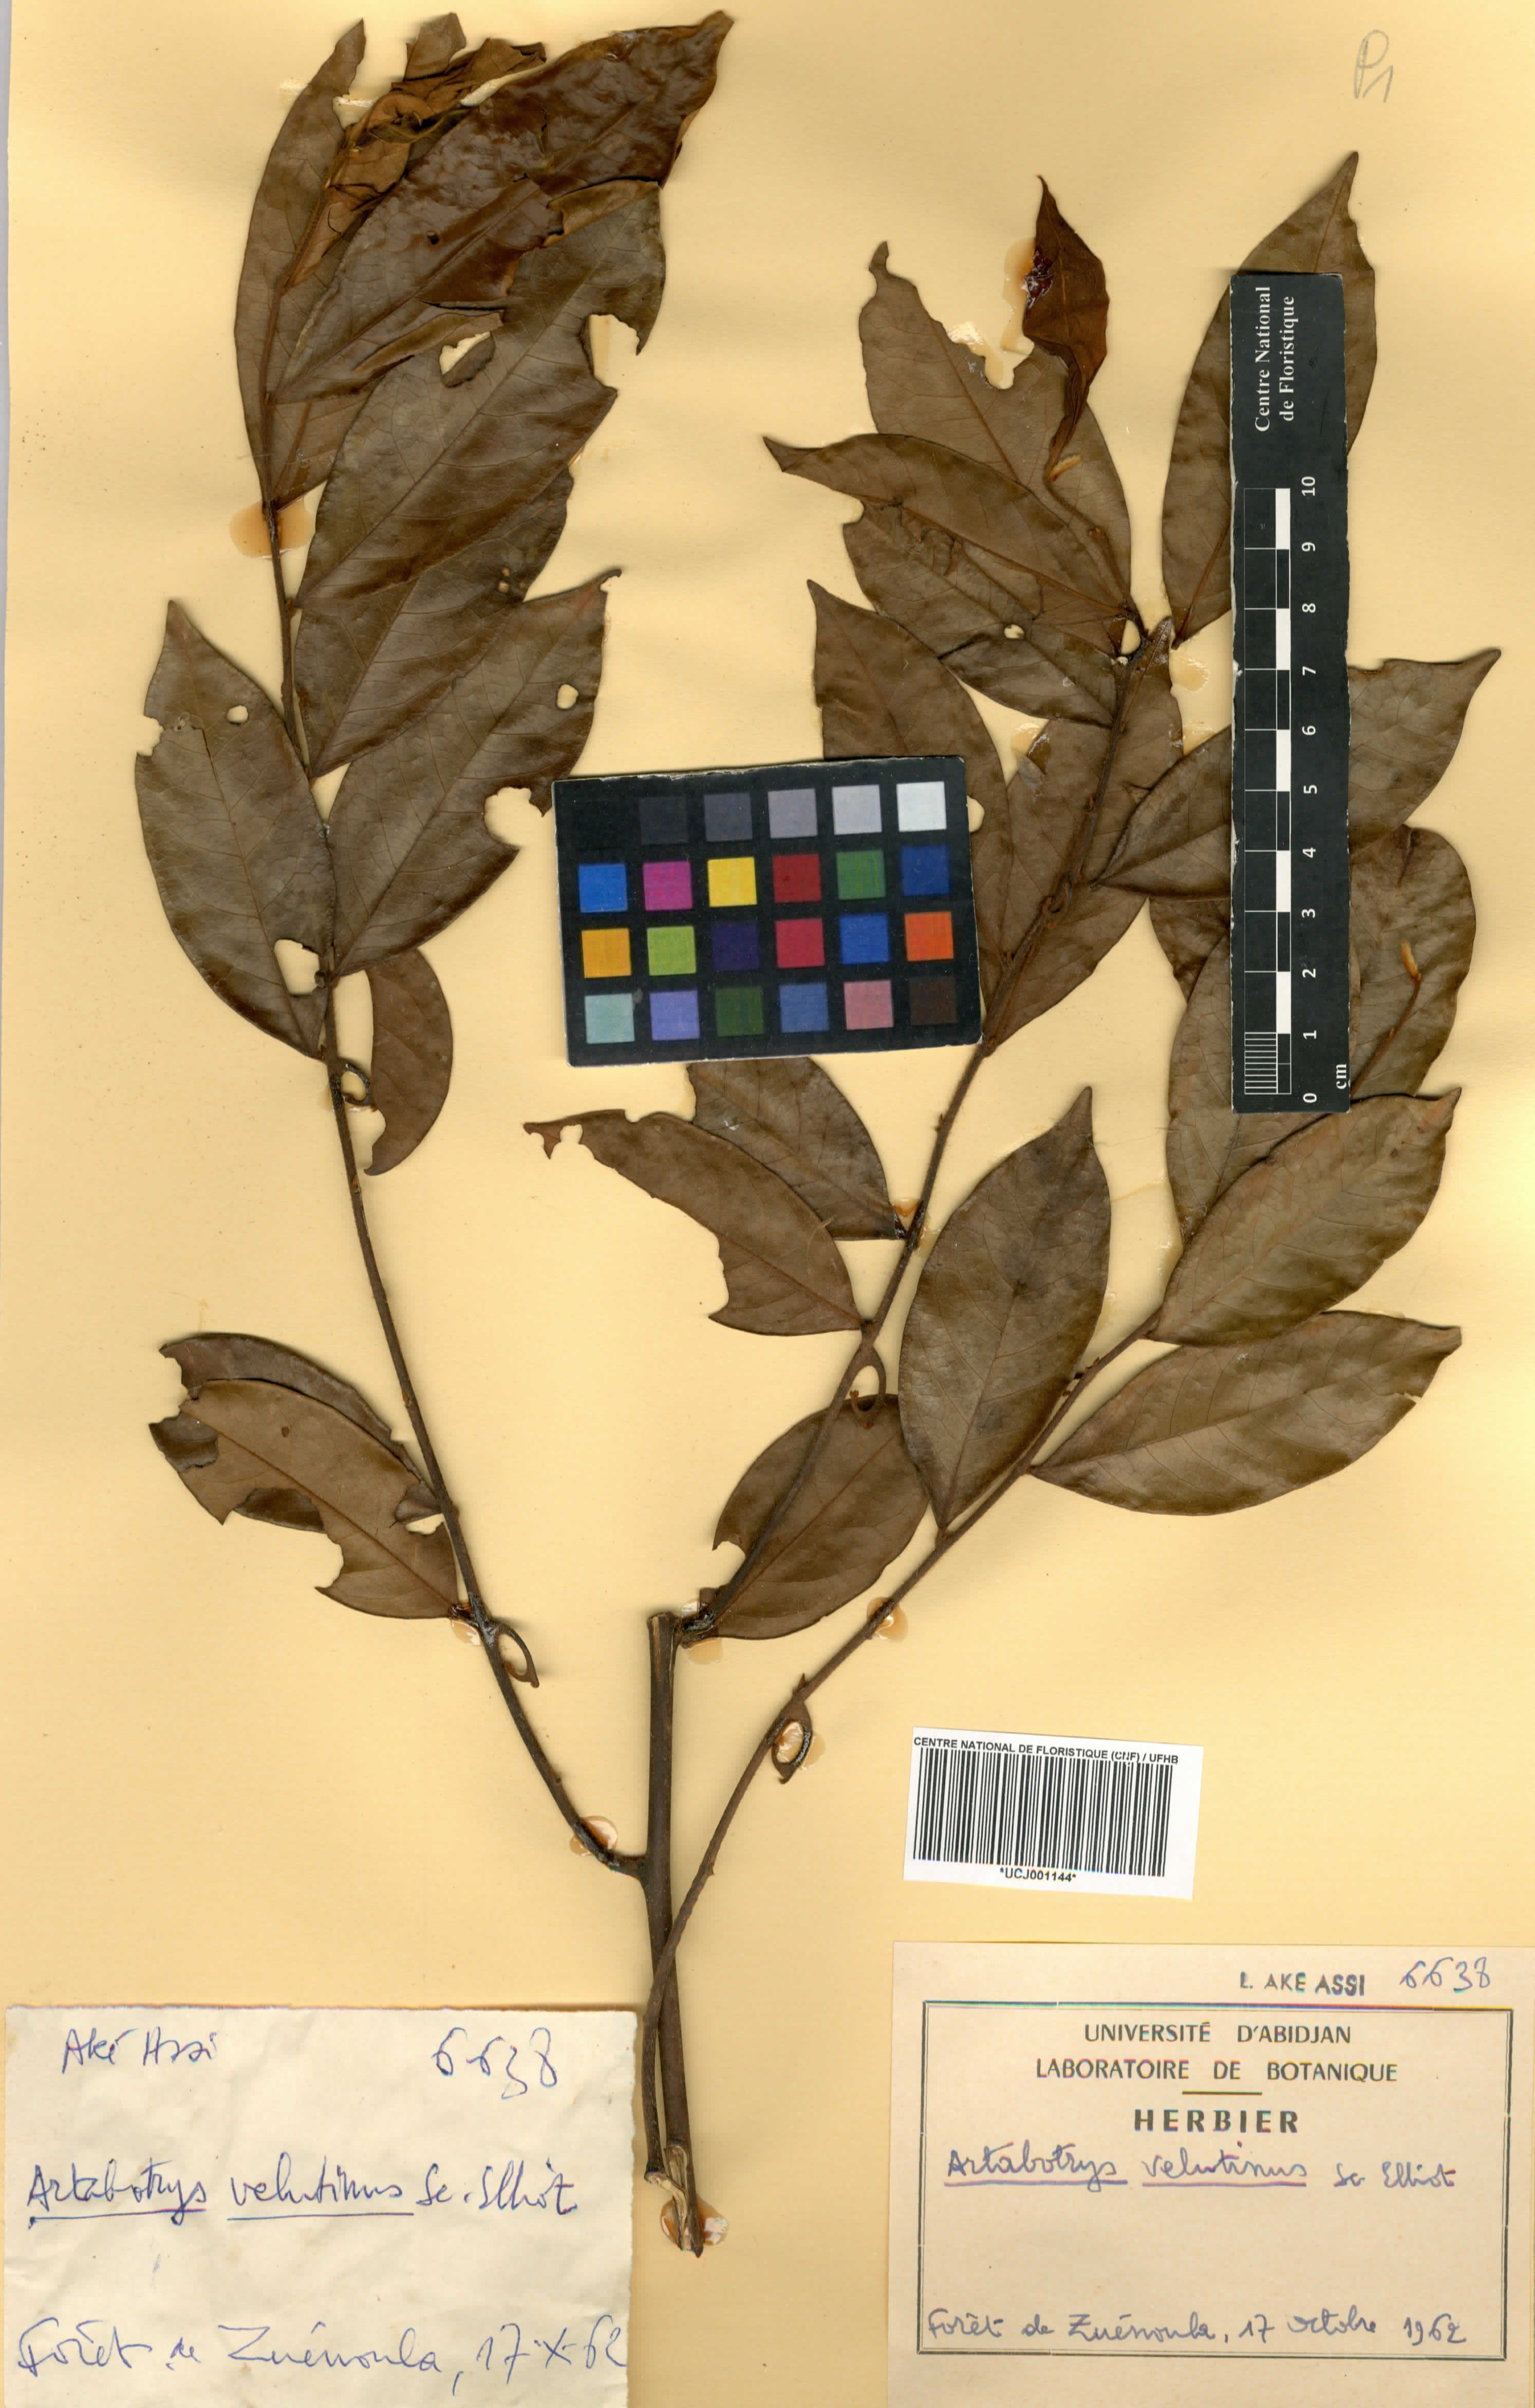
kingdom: Plantae
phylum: Tracheophyta
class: Magnoliopsida
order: Magnoliales
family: Annonaceae
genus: Artabotrys
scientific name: Artabotrys velutinus
